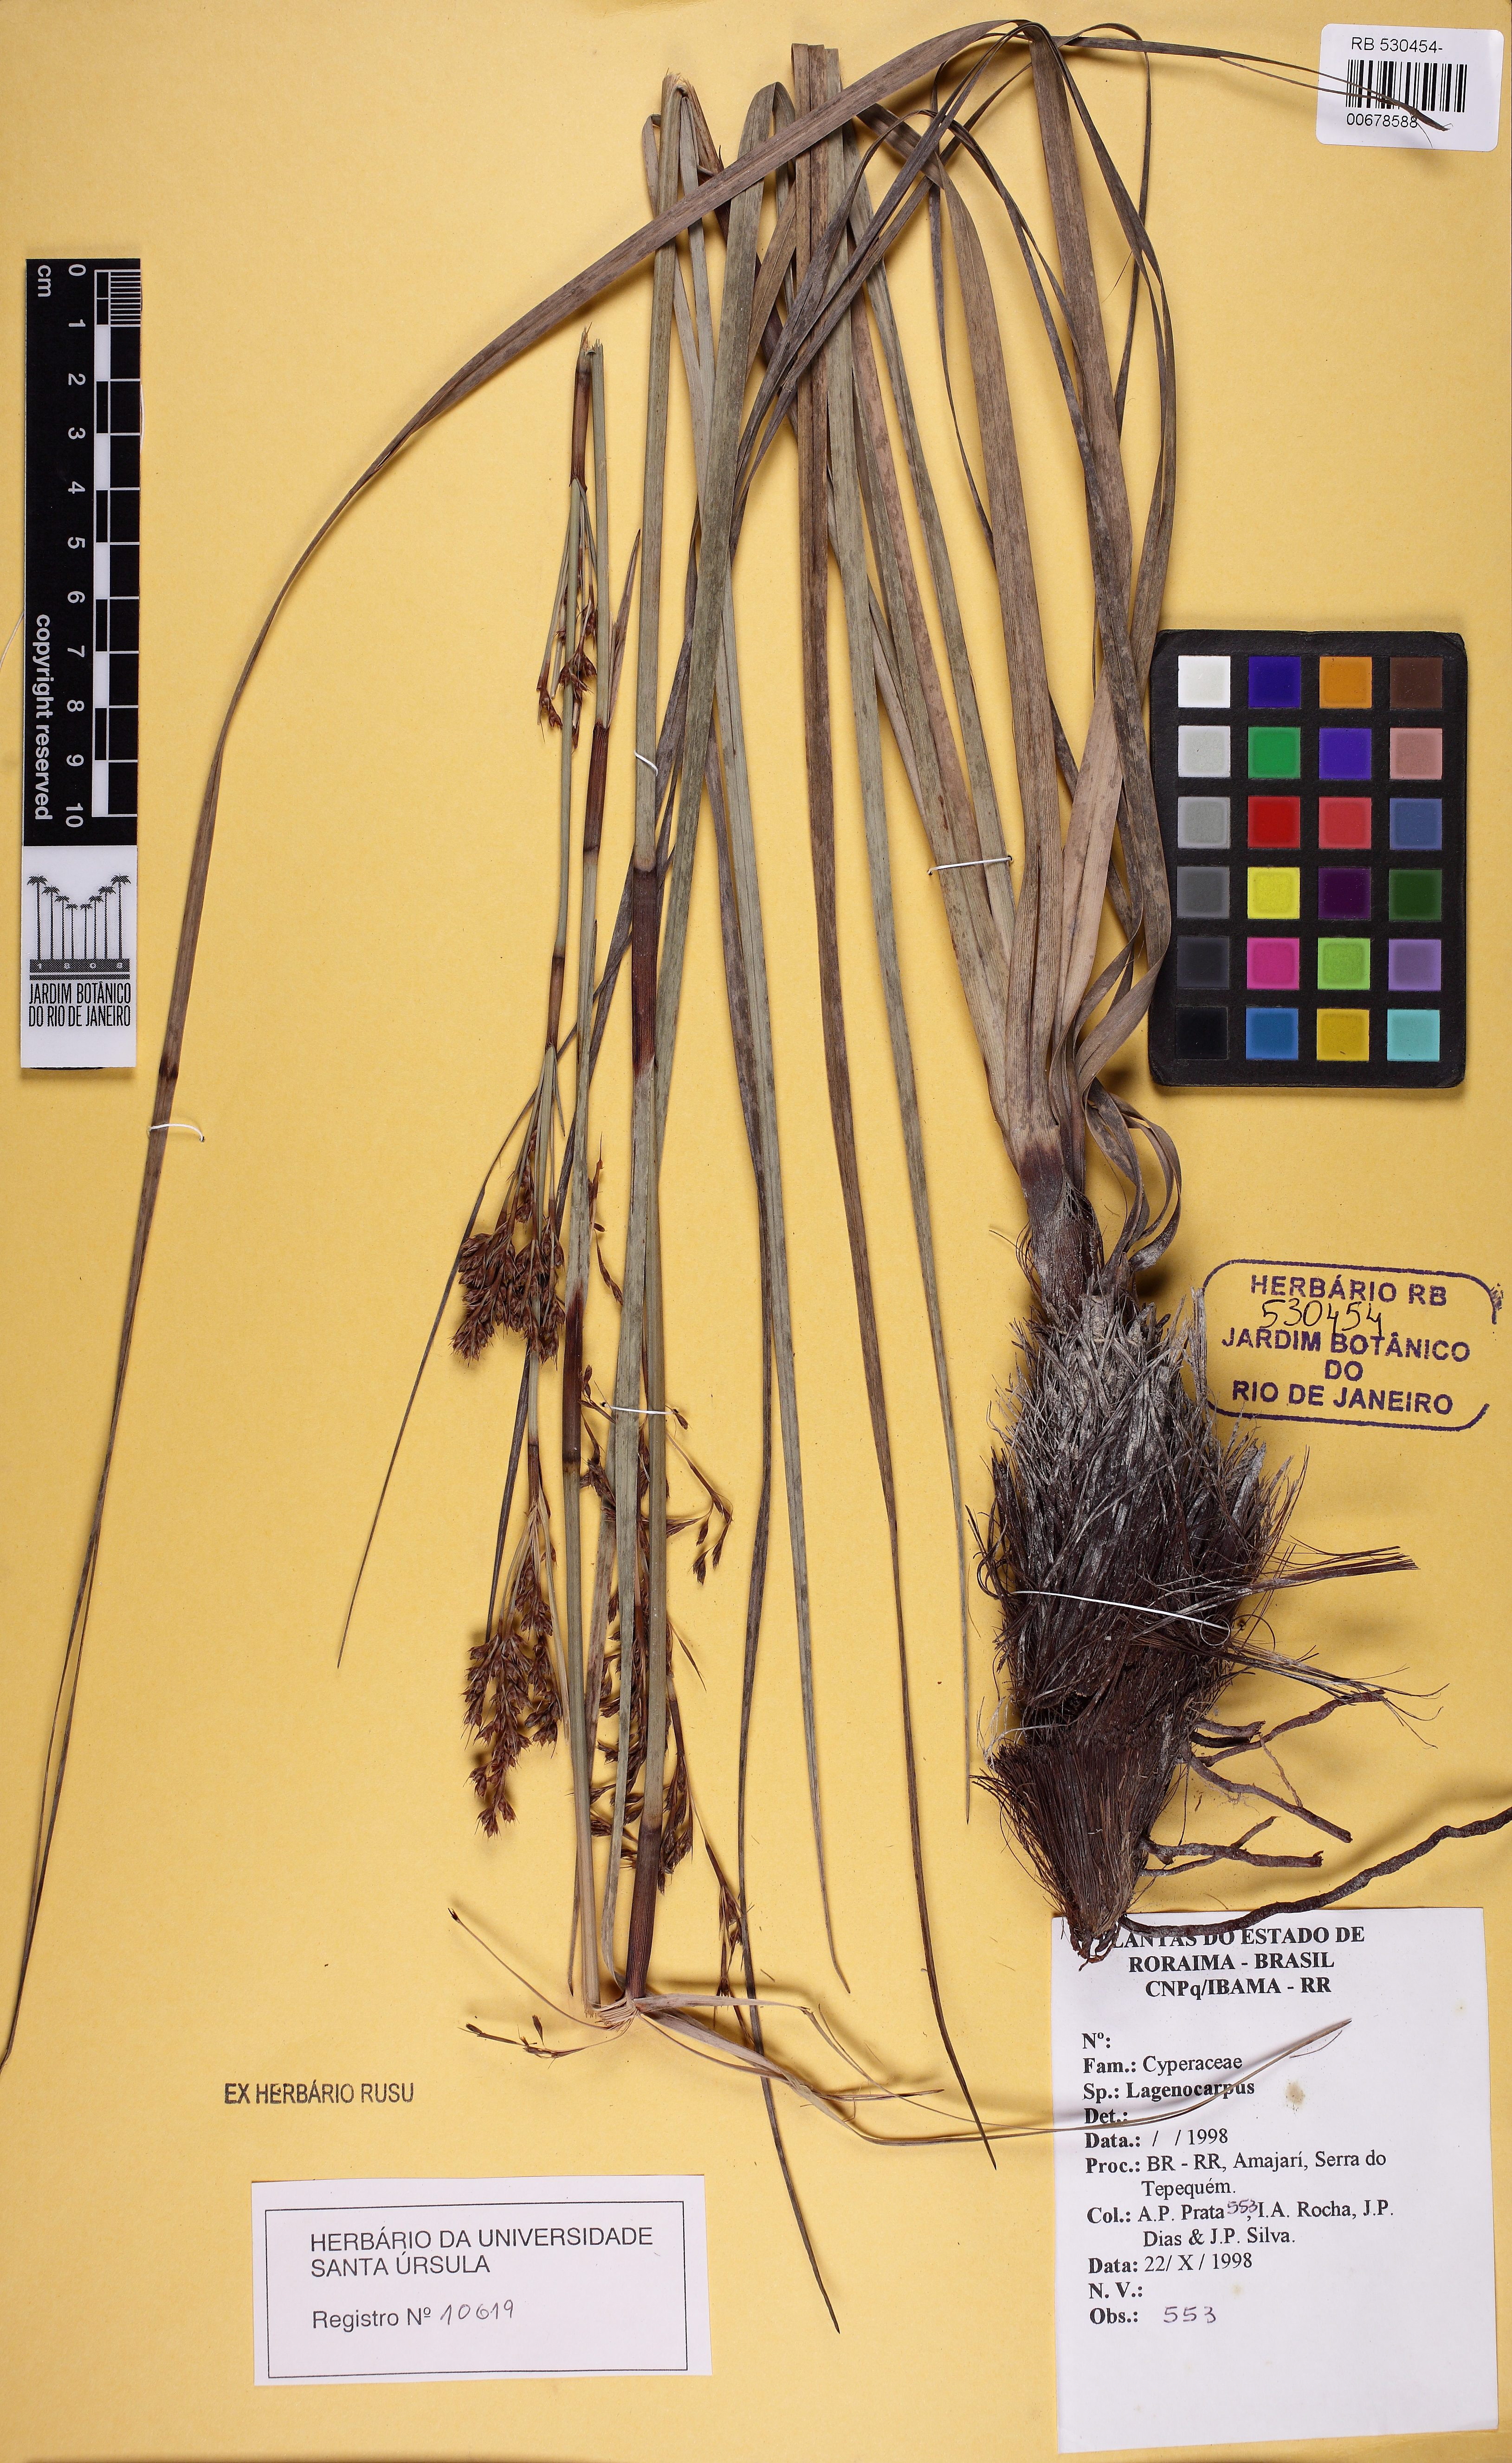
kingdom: Plantae
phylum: Tracheophyta
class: Liliopsida
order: Poales
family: Cyperaceae
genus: Lagenocarpus
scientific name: Lagenocarpus rigidus
